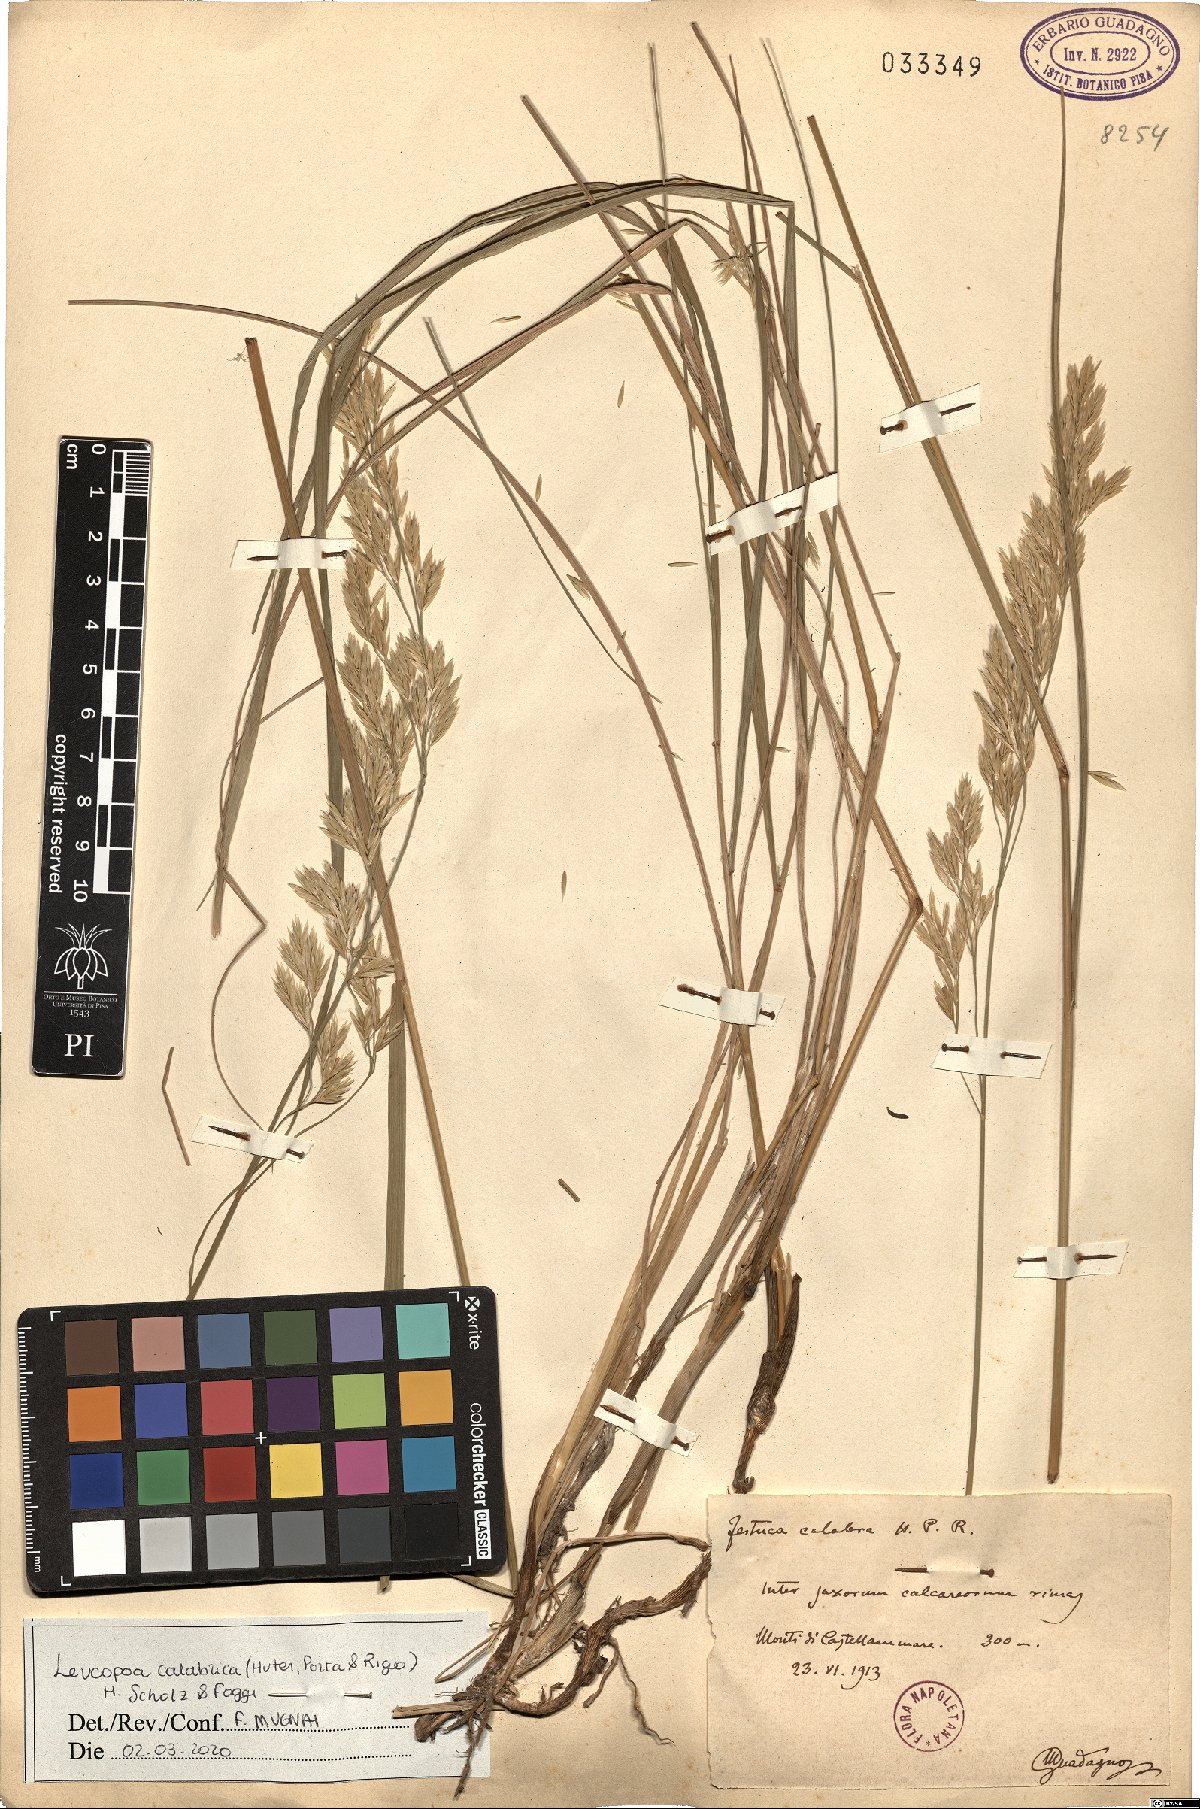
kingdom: Plantae
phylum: Tracheophyta
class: Liliopsida
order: Poales
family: Poaceae
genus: Festuca
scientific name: Festuca calabrica
